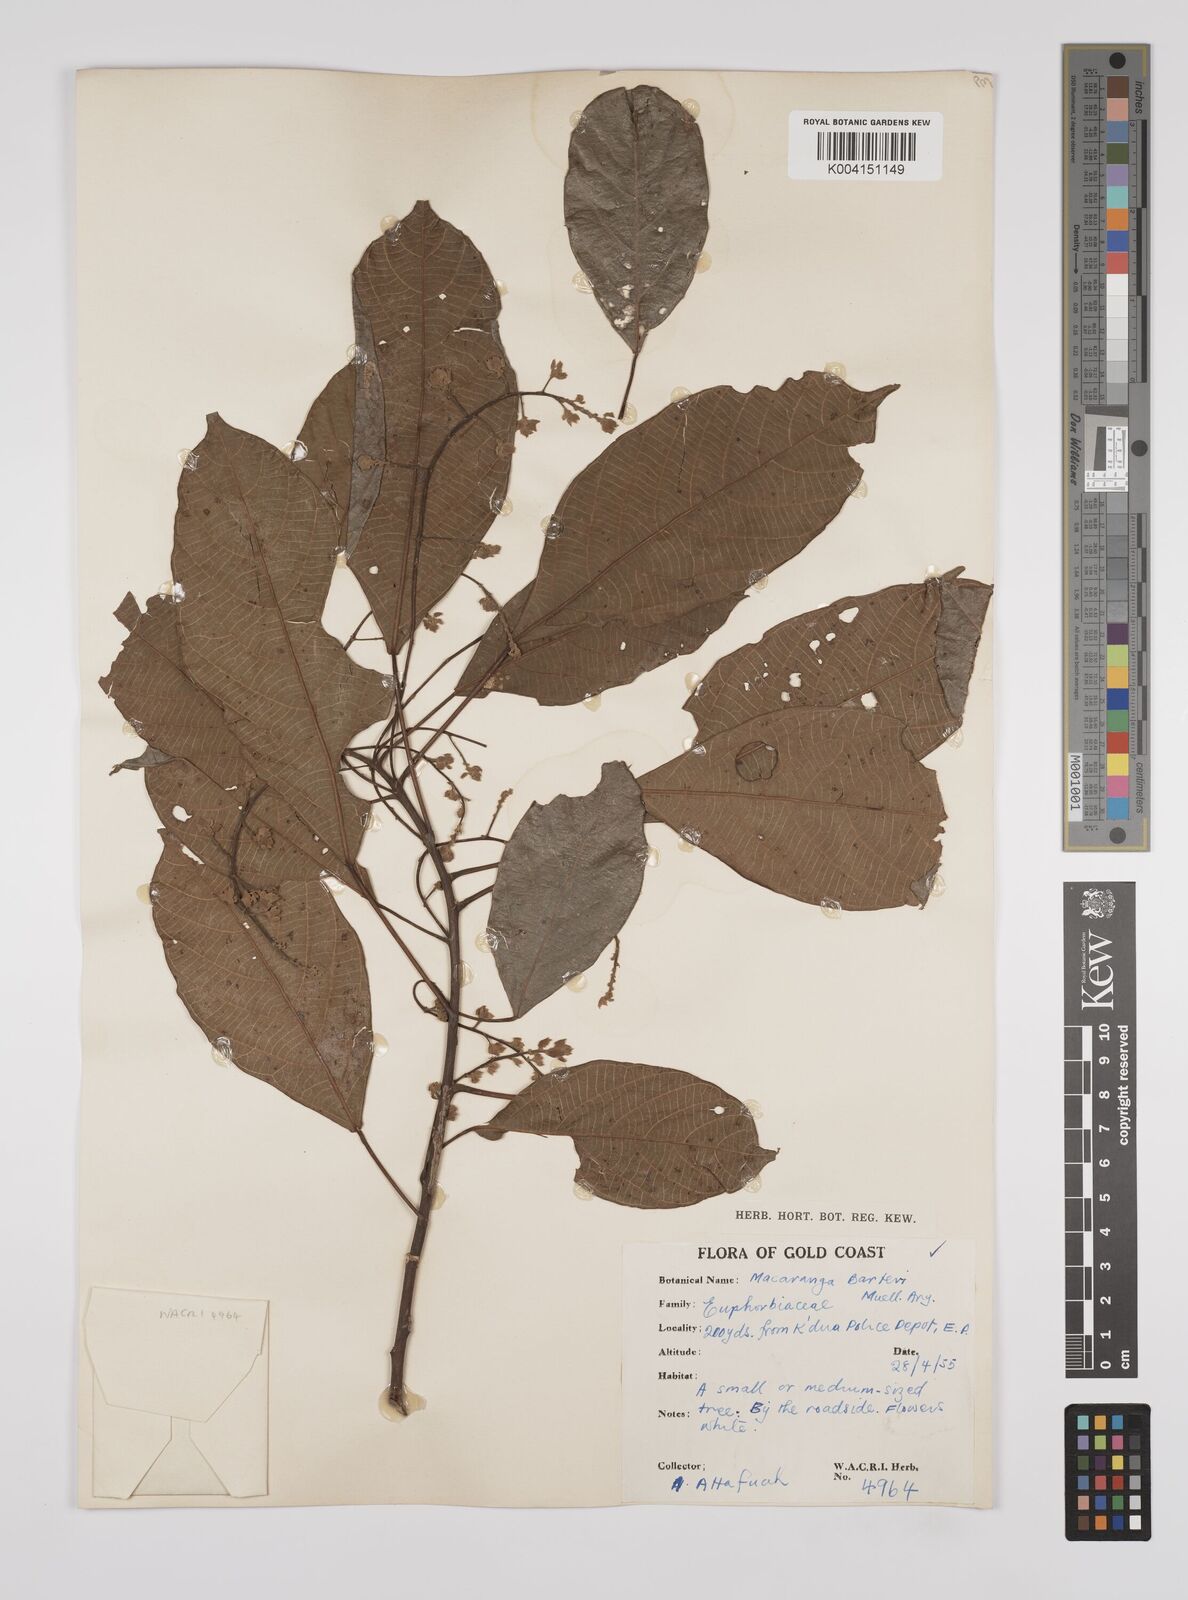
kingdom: Plantae
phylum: Tracheophyta
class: Magnoliopsida
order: Malpighiales
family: Euphorbiaceae
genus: Macaranga
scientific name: Macaranga barteri
